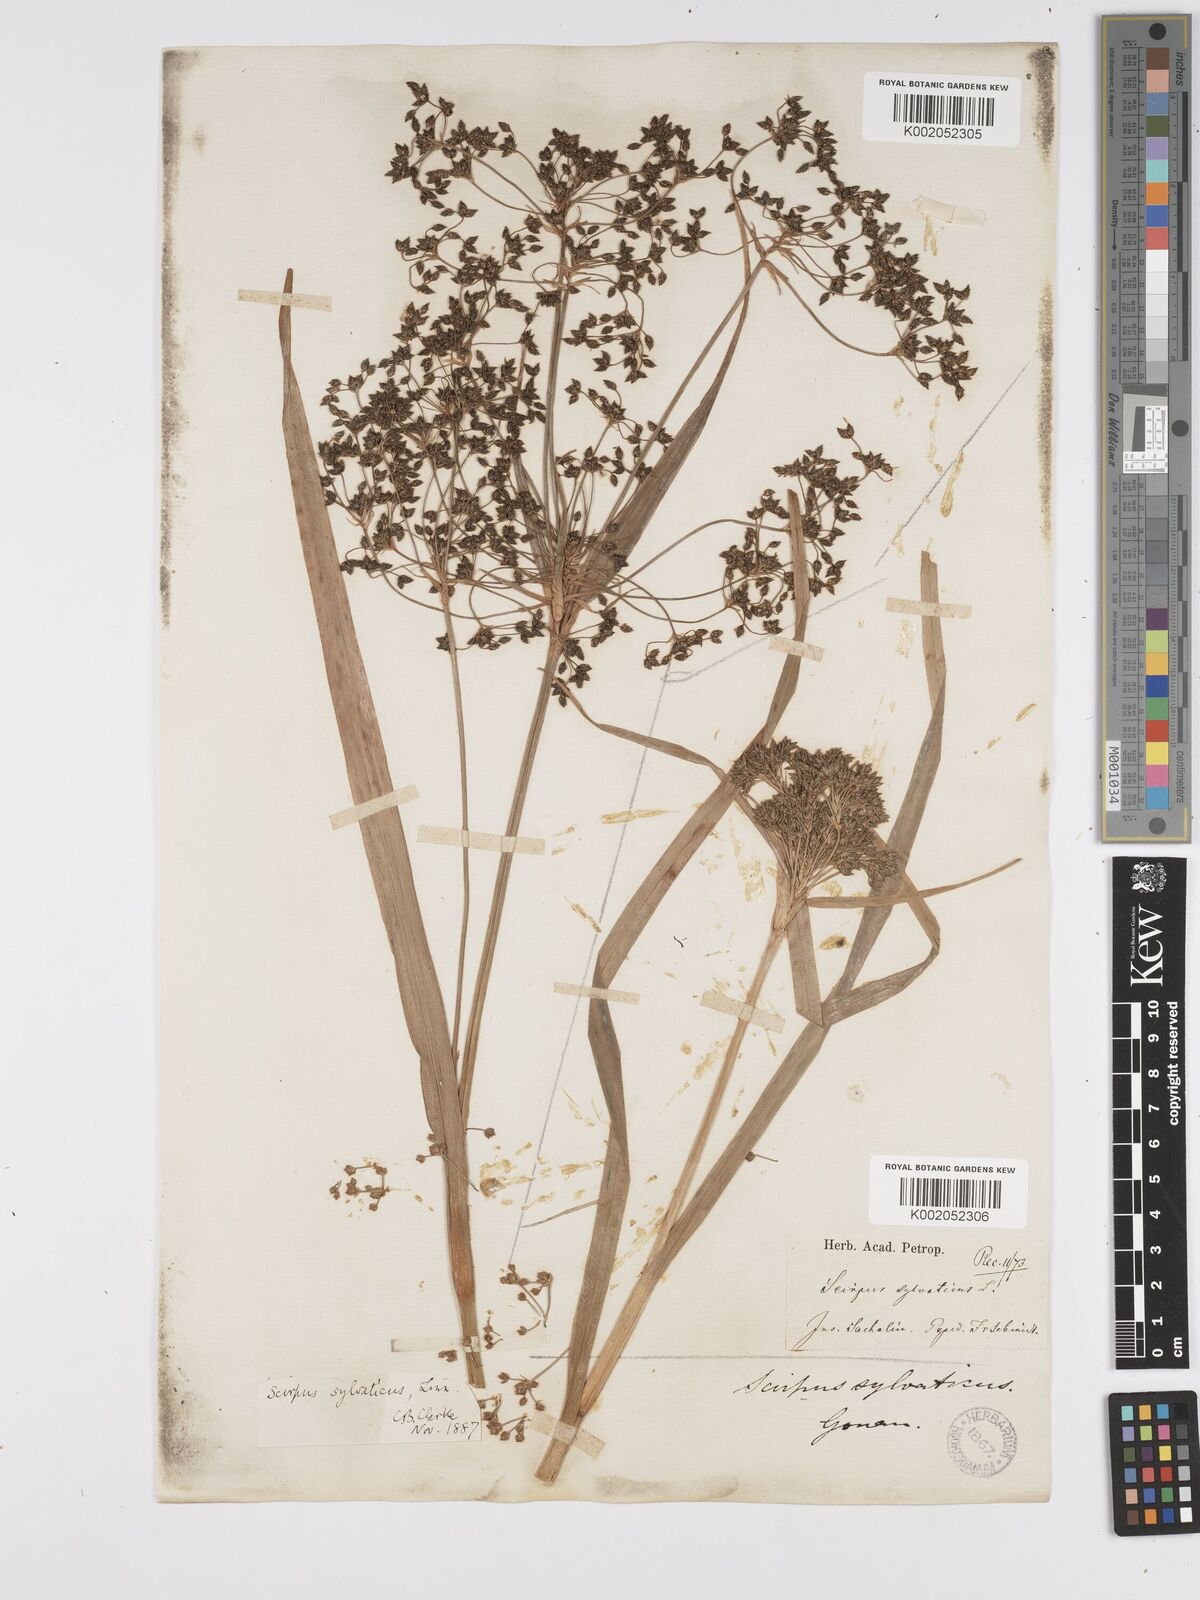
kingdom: Plantae
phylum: Tracheophyta
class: Liliopsida
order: Poales
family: Cyperaceae
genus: Scirpus
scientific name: Scirpus sylvaticus
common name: Wood club-rush
